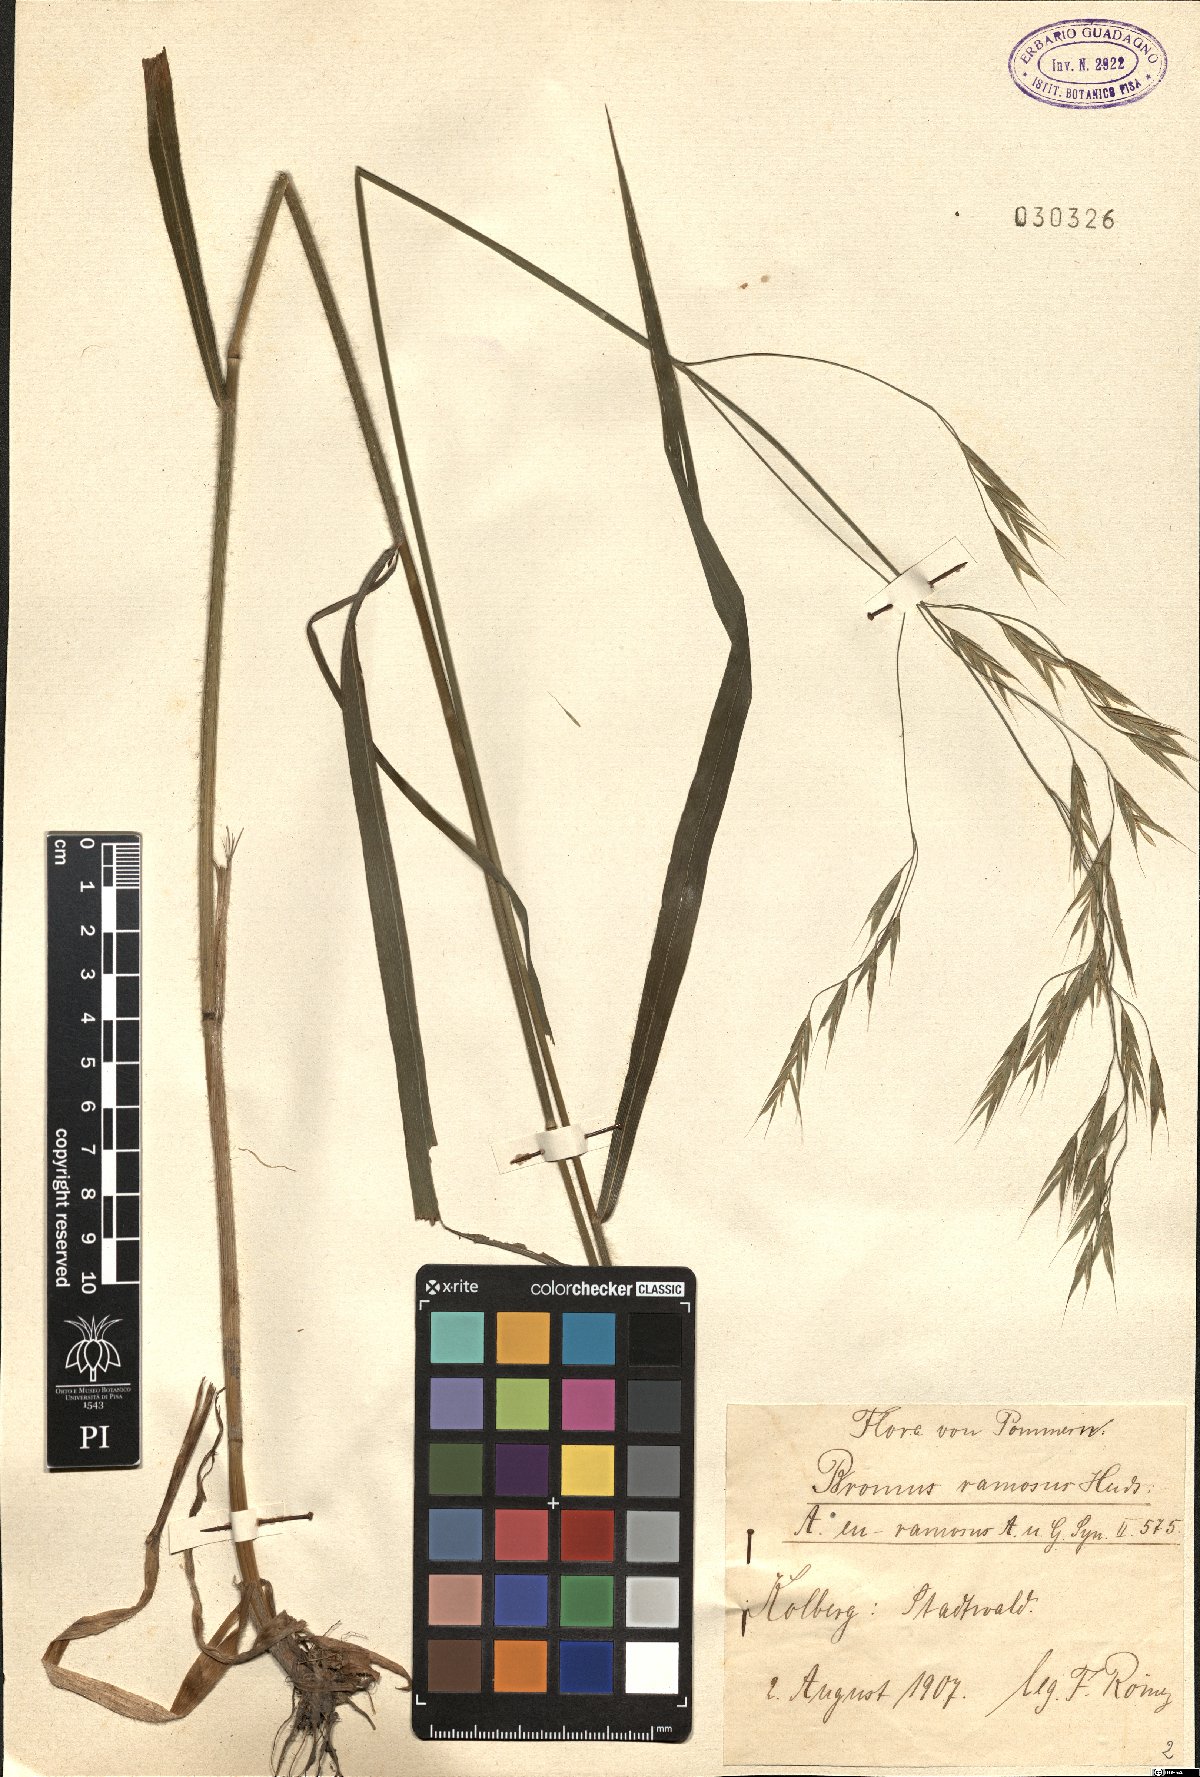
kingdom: Plantae
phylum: Tracheophyta
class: Liliopsida
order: Poales
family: Poaceae
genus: Bromus
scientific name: Bromus ramosus
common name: Hairy brome
